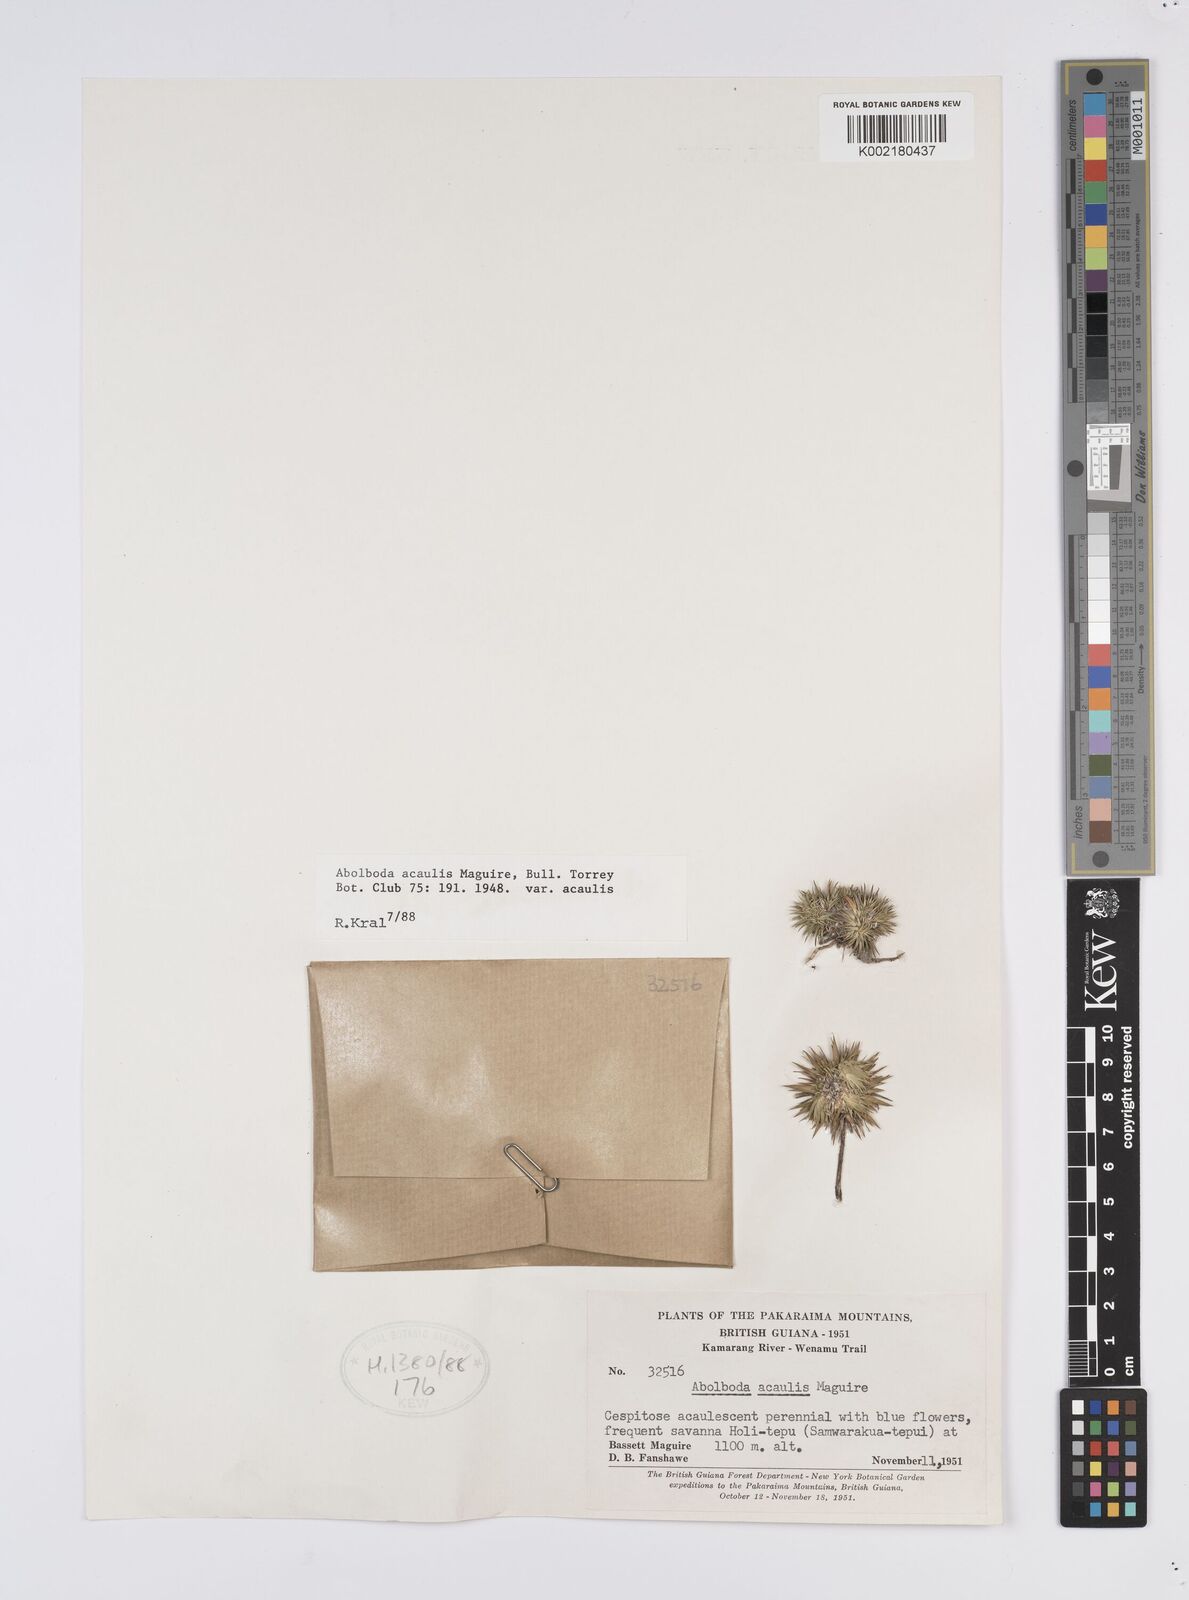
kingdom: Plantae
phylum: Tracheophyta
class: Liliopsida
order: Poales
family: Xyridaceae
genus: Abolboda
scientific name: Abolboda acaulis
